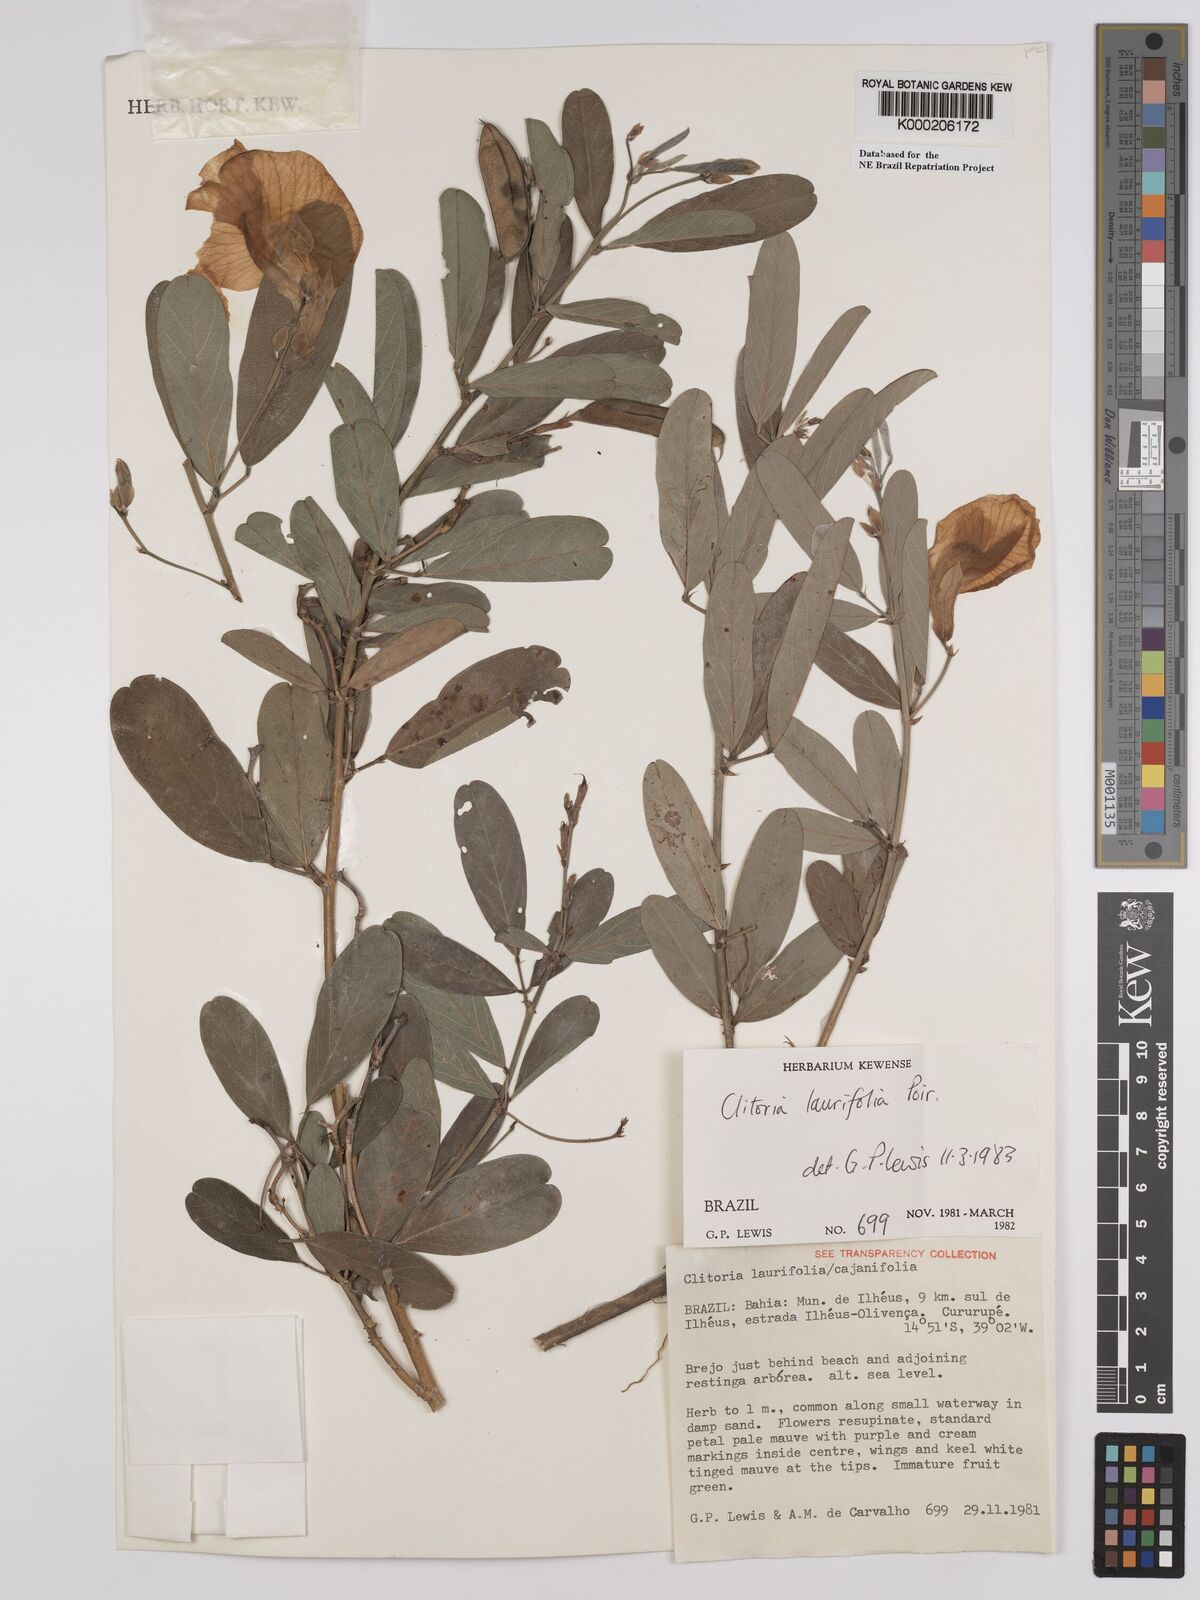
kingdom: Plantae
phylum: Tracheophyta
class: Magnoliopsida
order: Fabales
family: Fabaceae
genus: Clitoria
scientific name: Clitoria laurifolia
